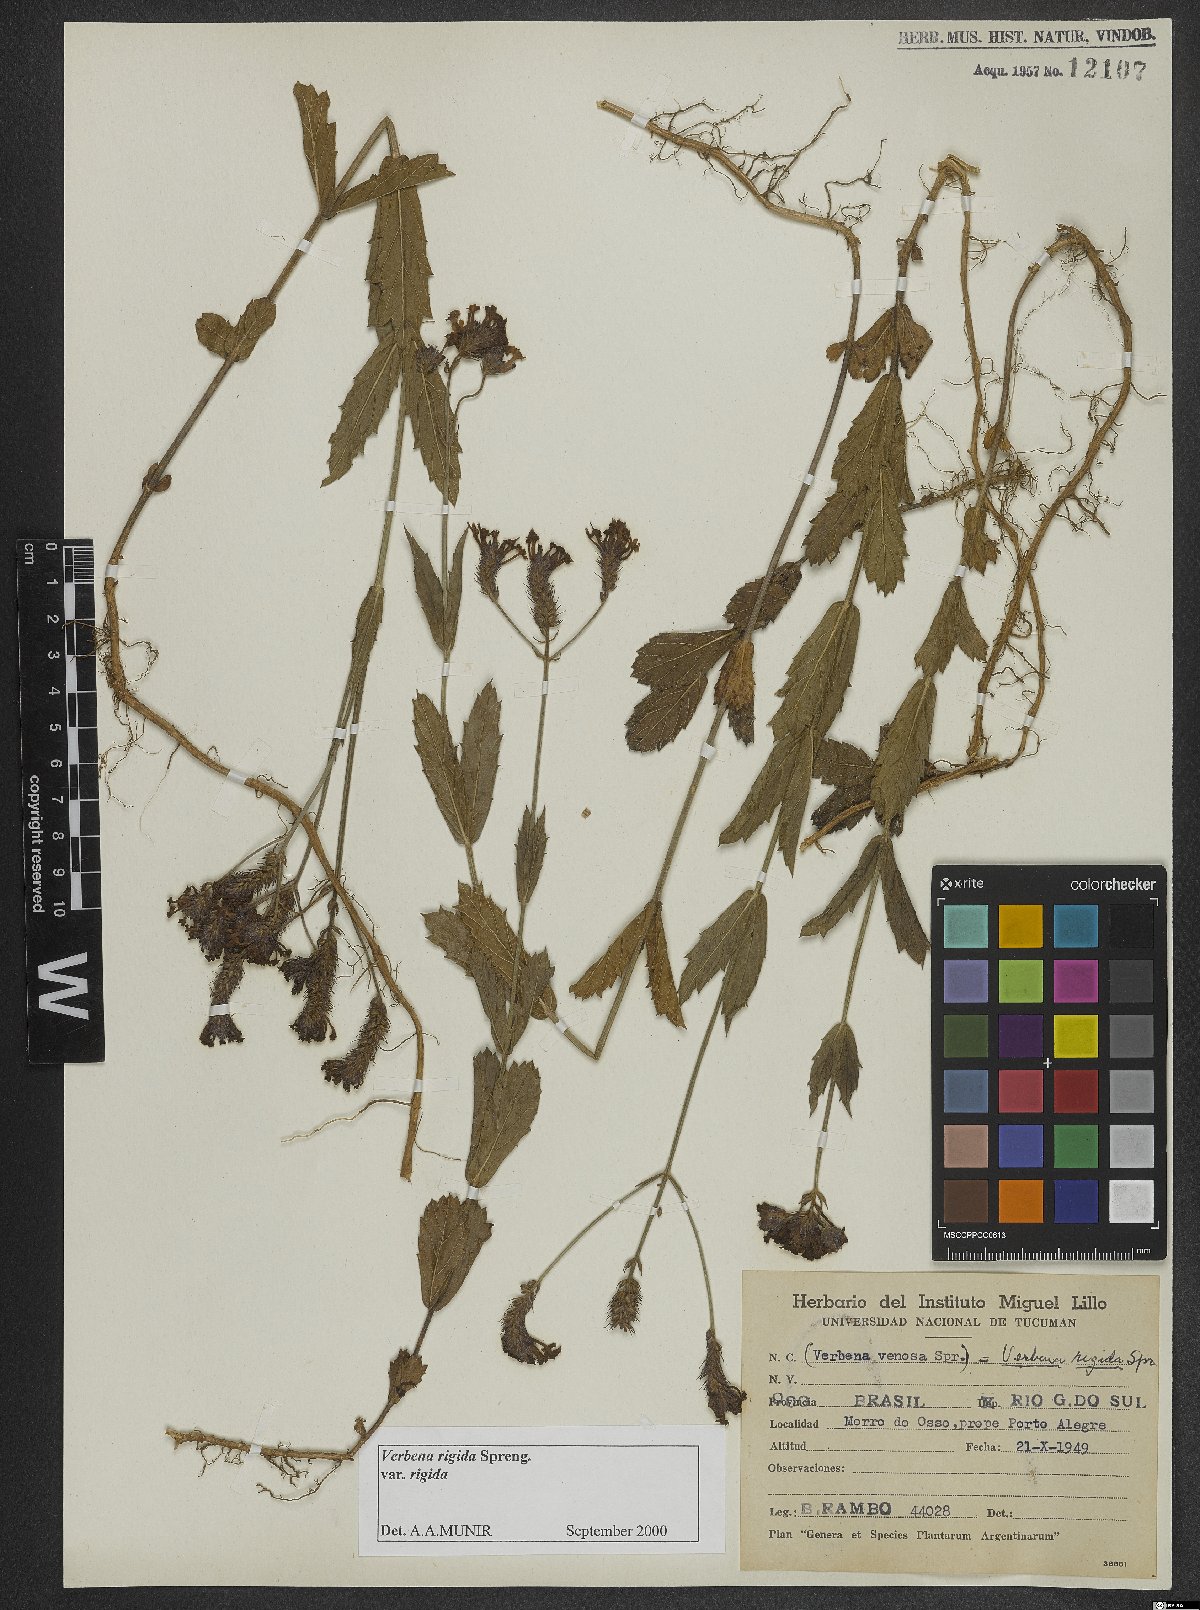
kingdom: Plantae
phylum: Tracheophyta
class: Magnoliopsida
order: Lamiales
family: Verbenaceae
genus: Verbena
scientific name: Verbena rigida
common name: Slender vervain
